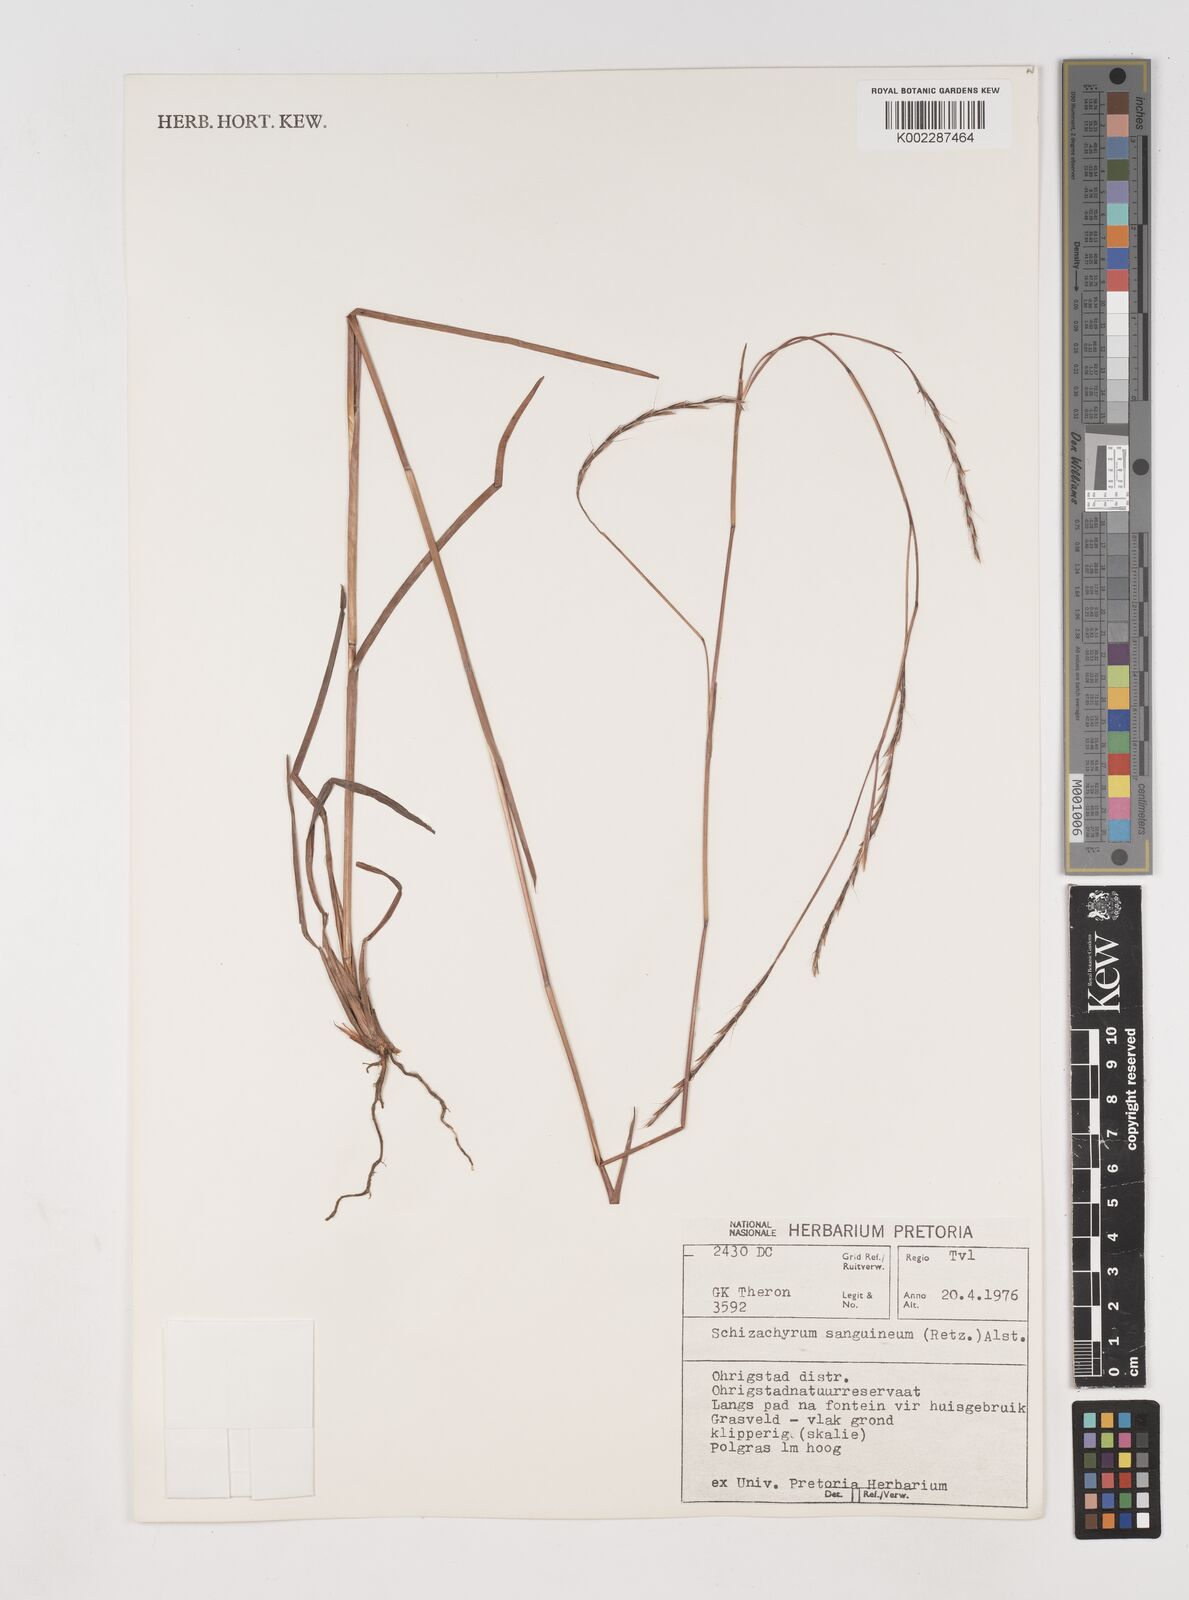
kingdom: Plantae
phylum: Tracheophyta
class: Liliopsida
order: Poales
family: Poaceae
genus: Schizachyrium
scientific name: Schizachyrium sanguineum
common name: Crimson bluestem
